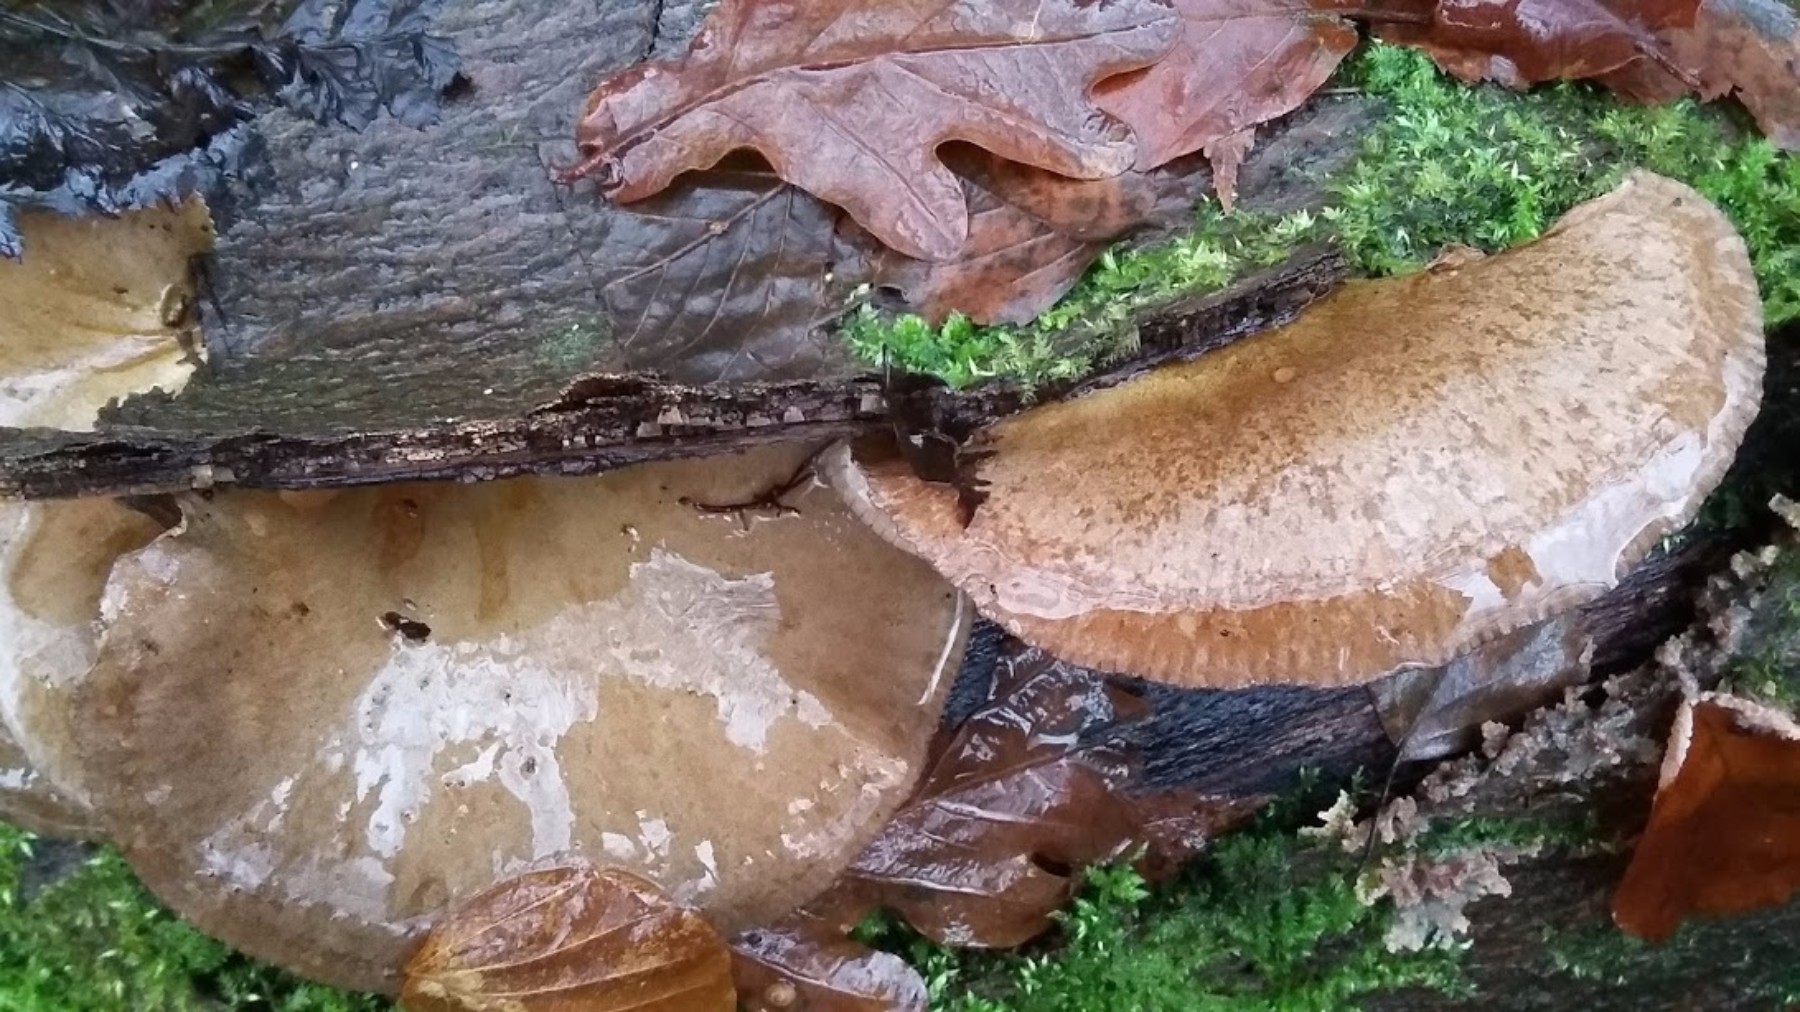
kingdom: Fungi
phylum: Basidiomycota
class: Agaricomycetes
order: Agaricales
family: Sarcomyxaceae
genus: Sarcomyxa
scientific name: Sarcomyxa serotina
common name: gummihat
